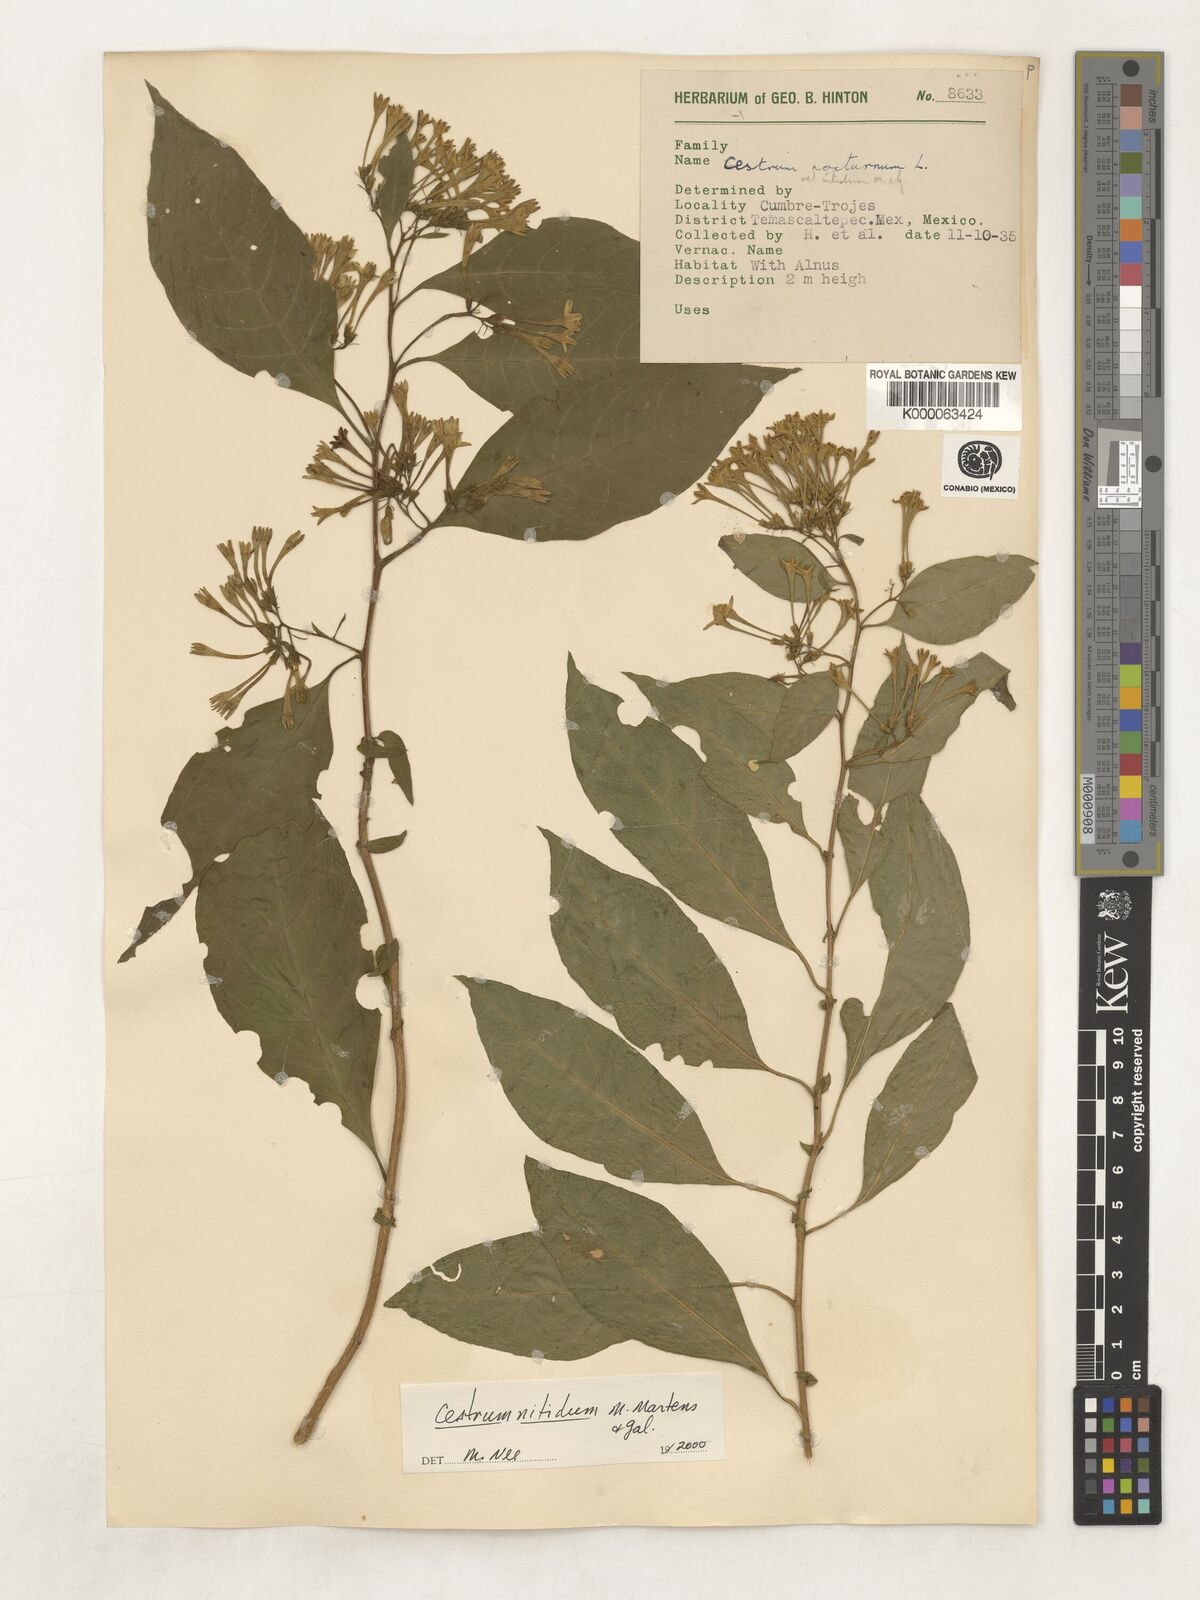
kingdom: Plantae
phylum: Tracheophyta
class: Magnoliopsida
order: Solanales
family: Solanaceae
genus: Cestrum
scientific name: Cestrum nitidum
